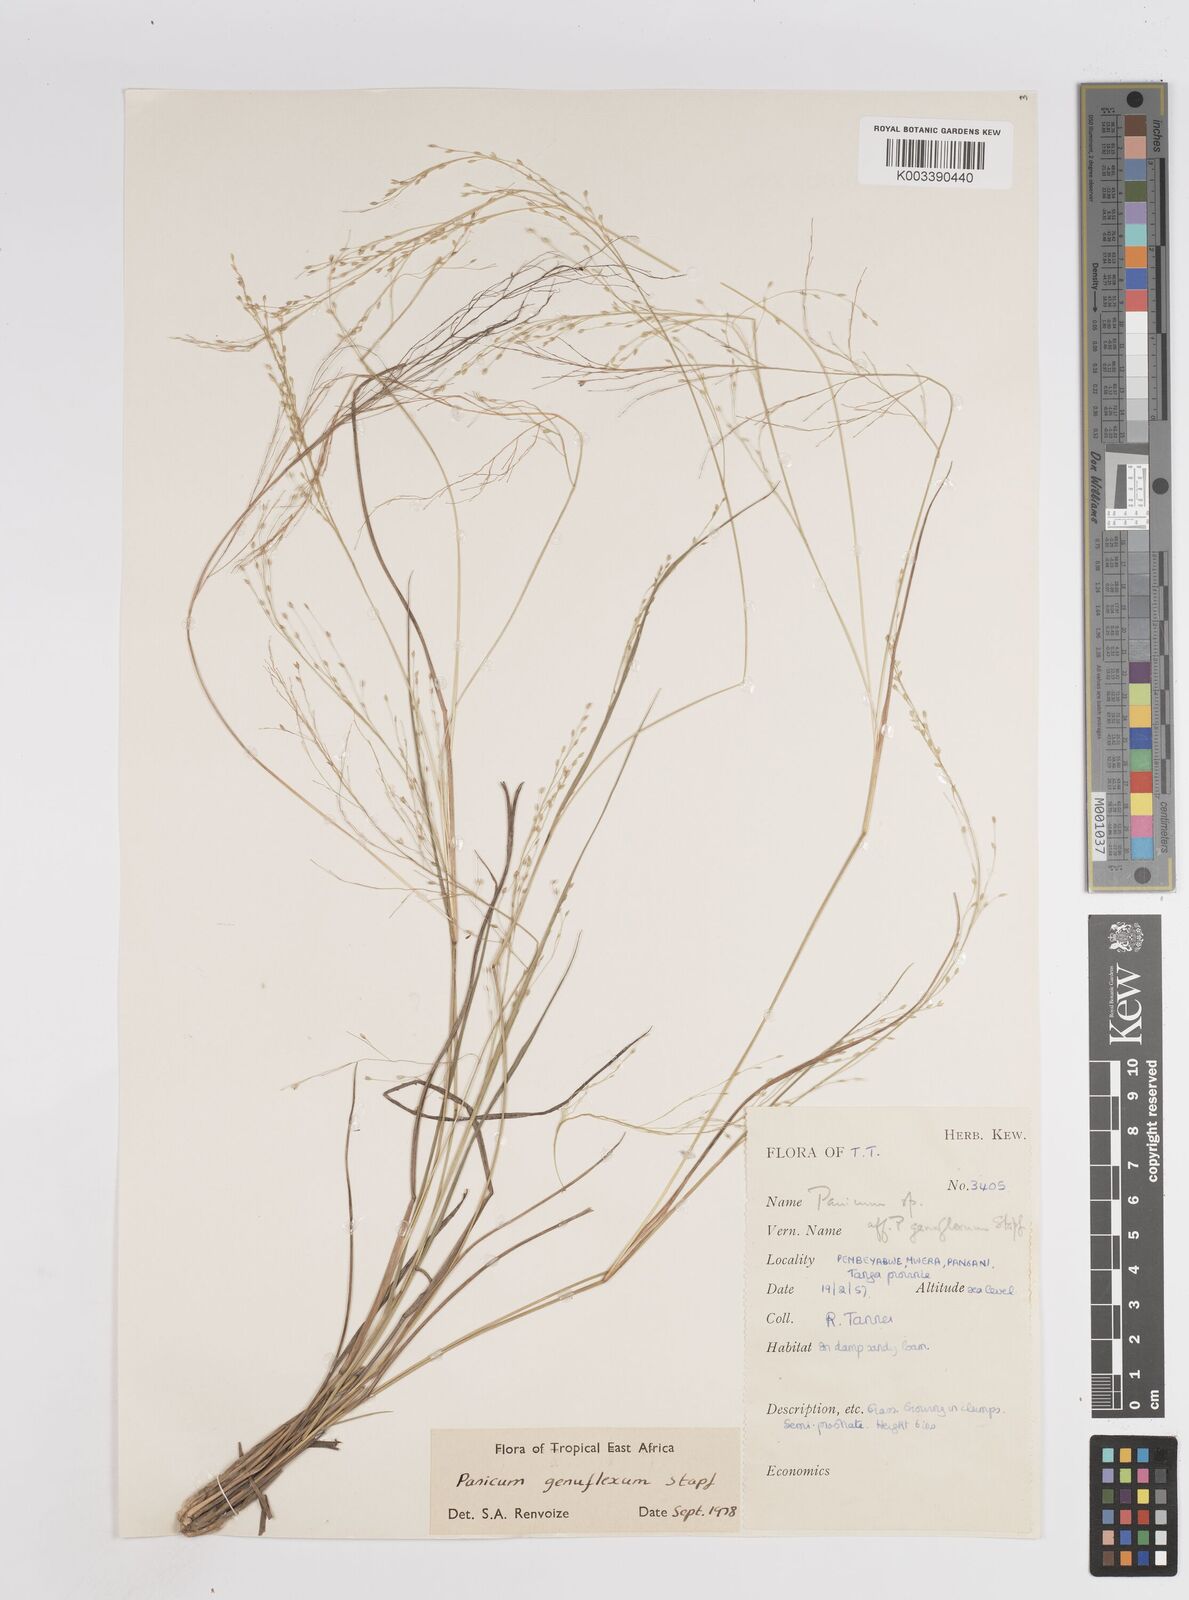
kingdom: Plantae
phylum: Tracheophyta
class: Liliopsida
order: Poales
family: Poaceae
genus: Panicum
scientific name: Panicum genuflexum
